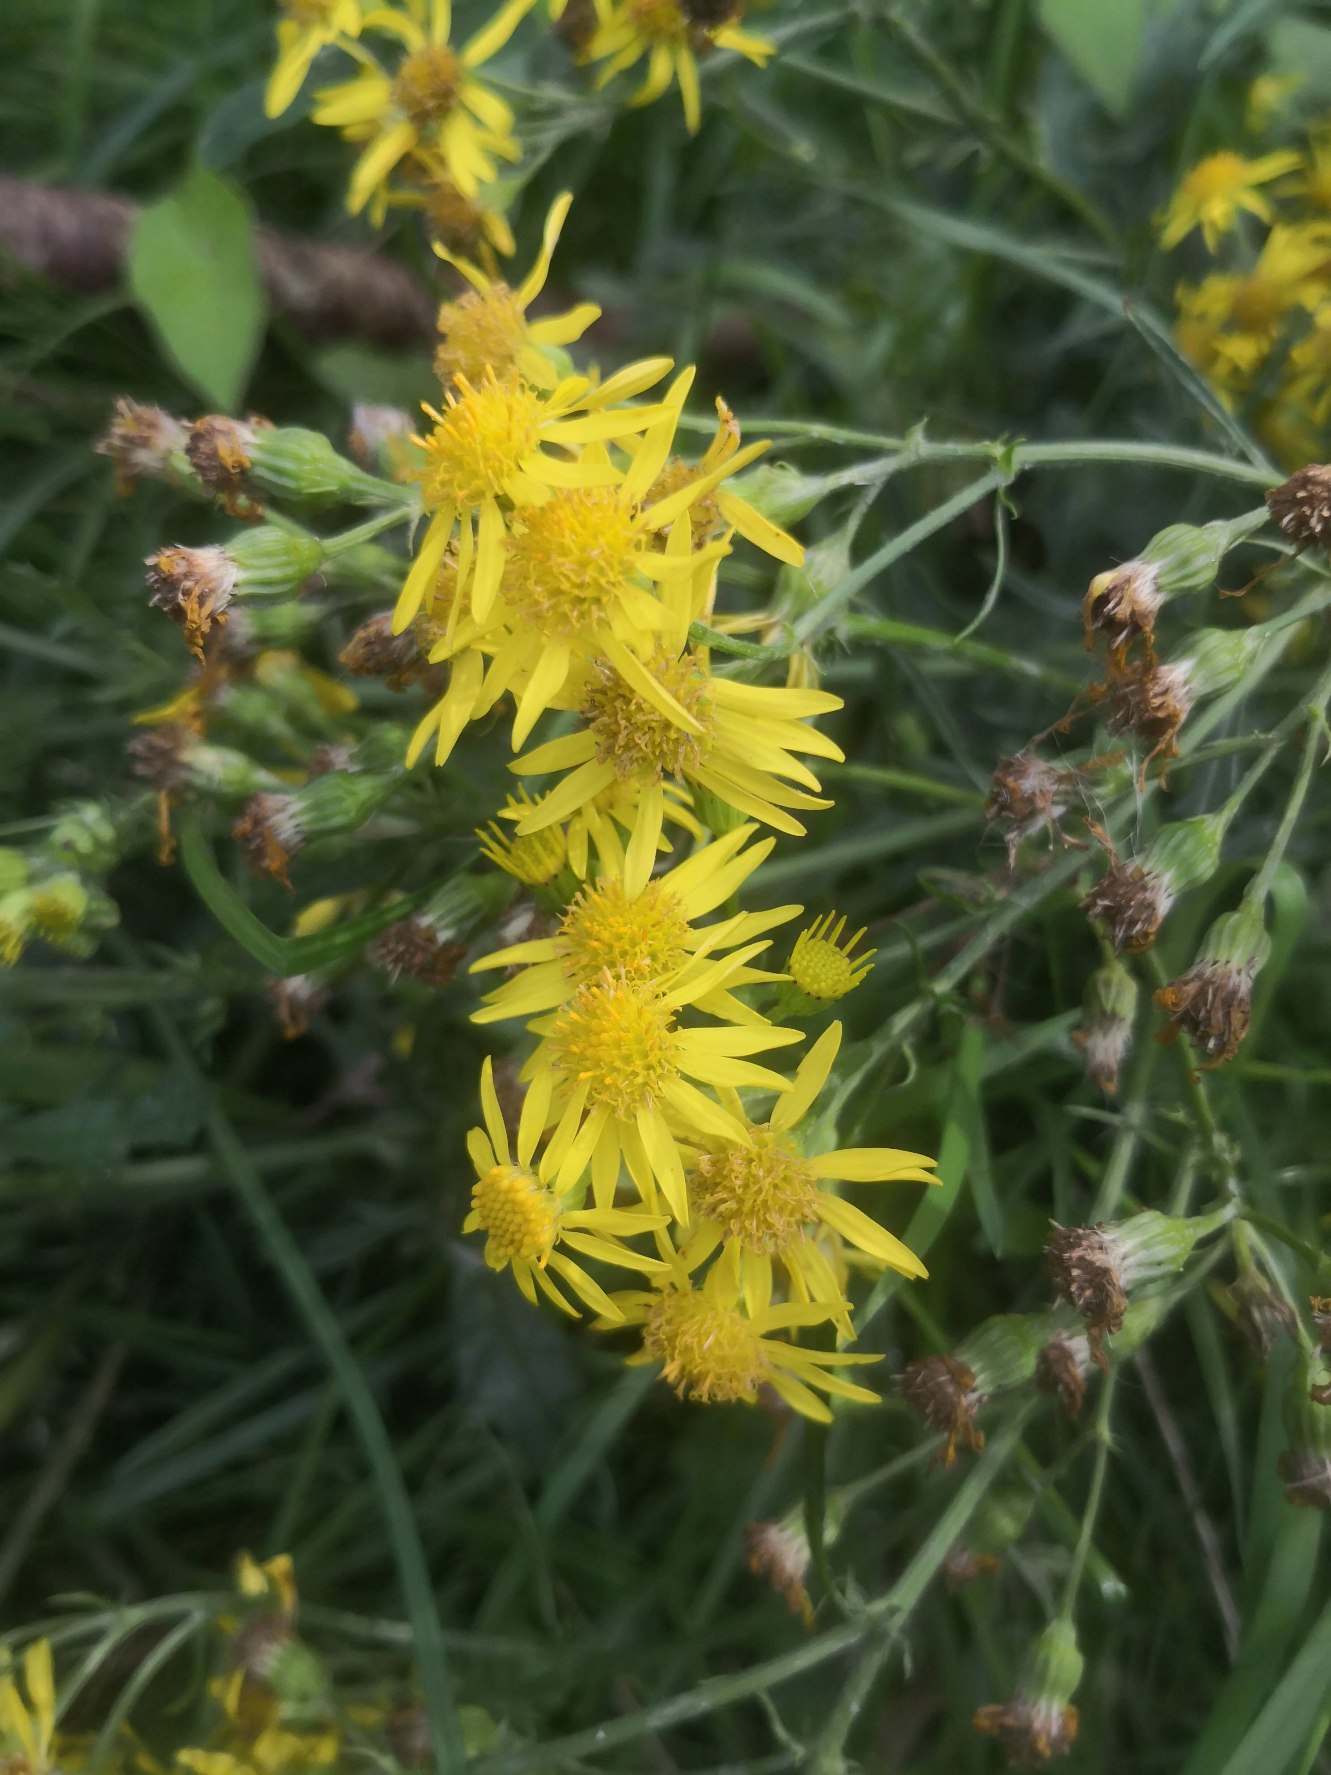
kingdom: Plantae
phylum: Tracheophyta
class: Magnoliopsida
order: Asterales
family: Asteraceae
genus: Jacobaea
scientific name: Jacobaea vulgaris
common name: Eng-brandbæger
